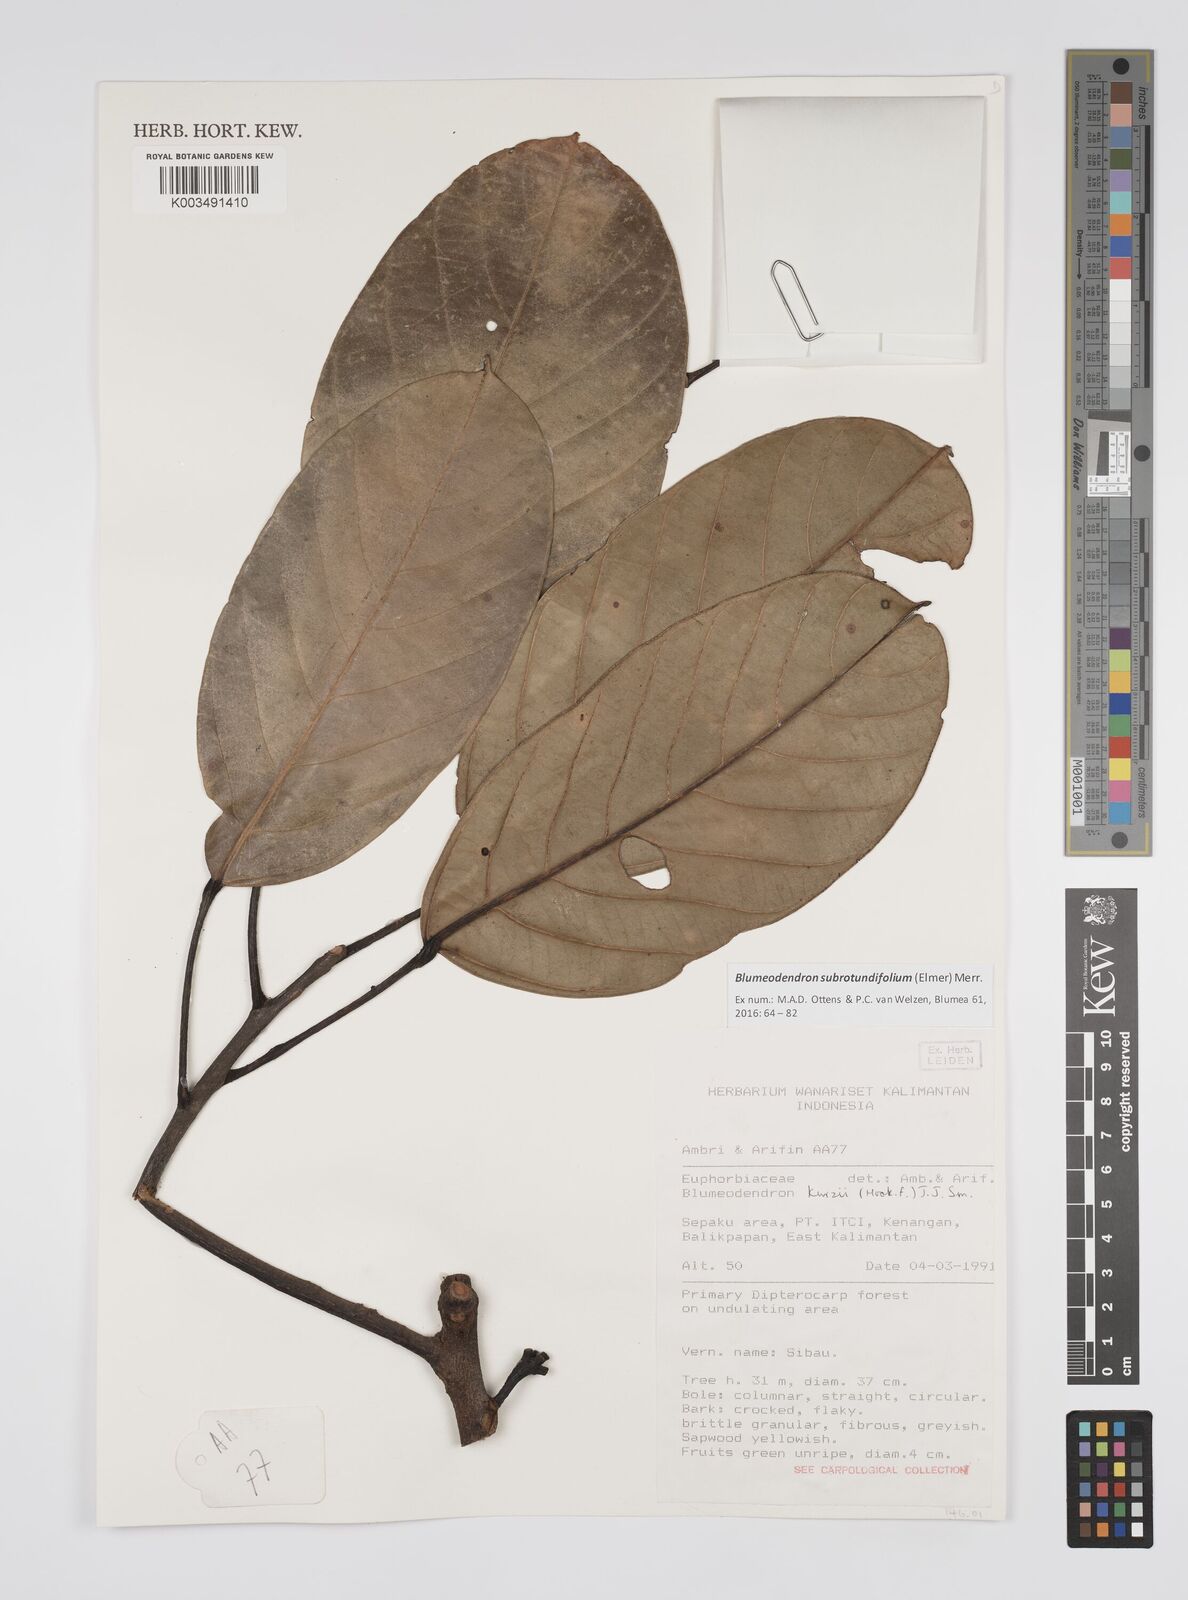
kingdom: Plantae
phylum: Tracheophyta
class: Magnoliopsida
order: Malpighiales
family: Euphorbiaceae
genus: Blumeodendron
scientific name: Blumeodendron subrotundifolium
